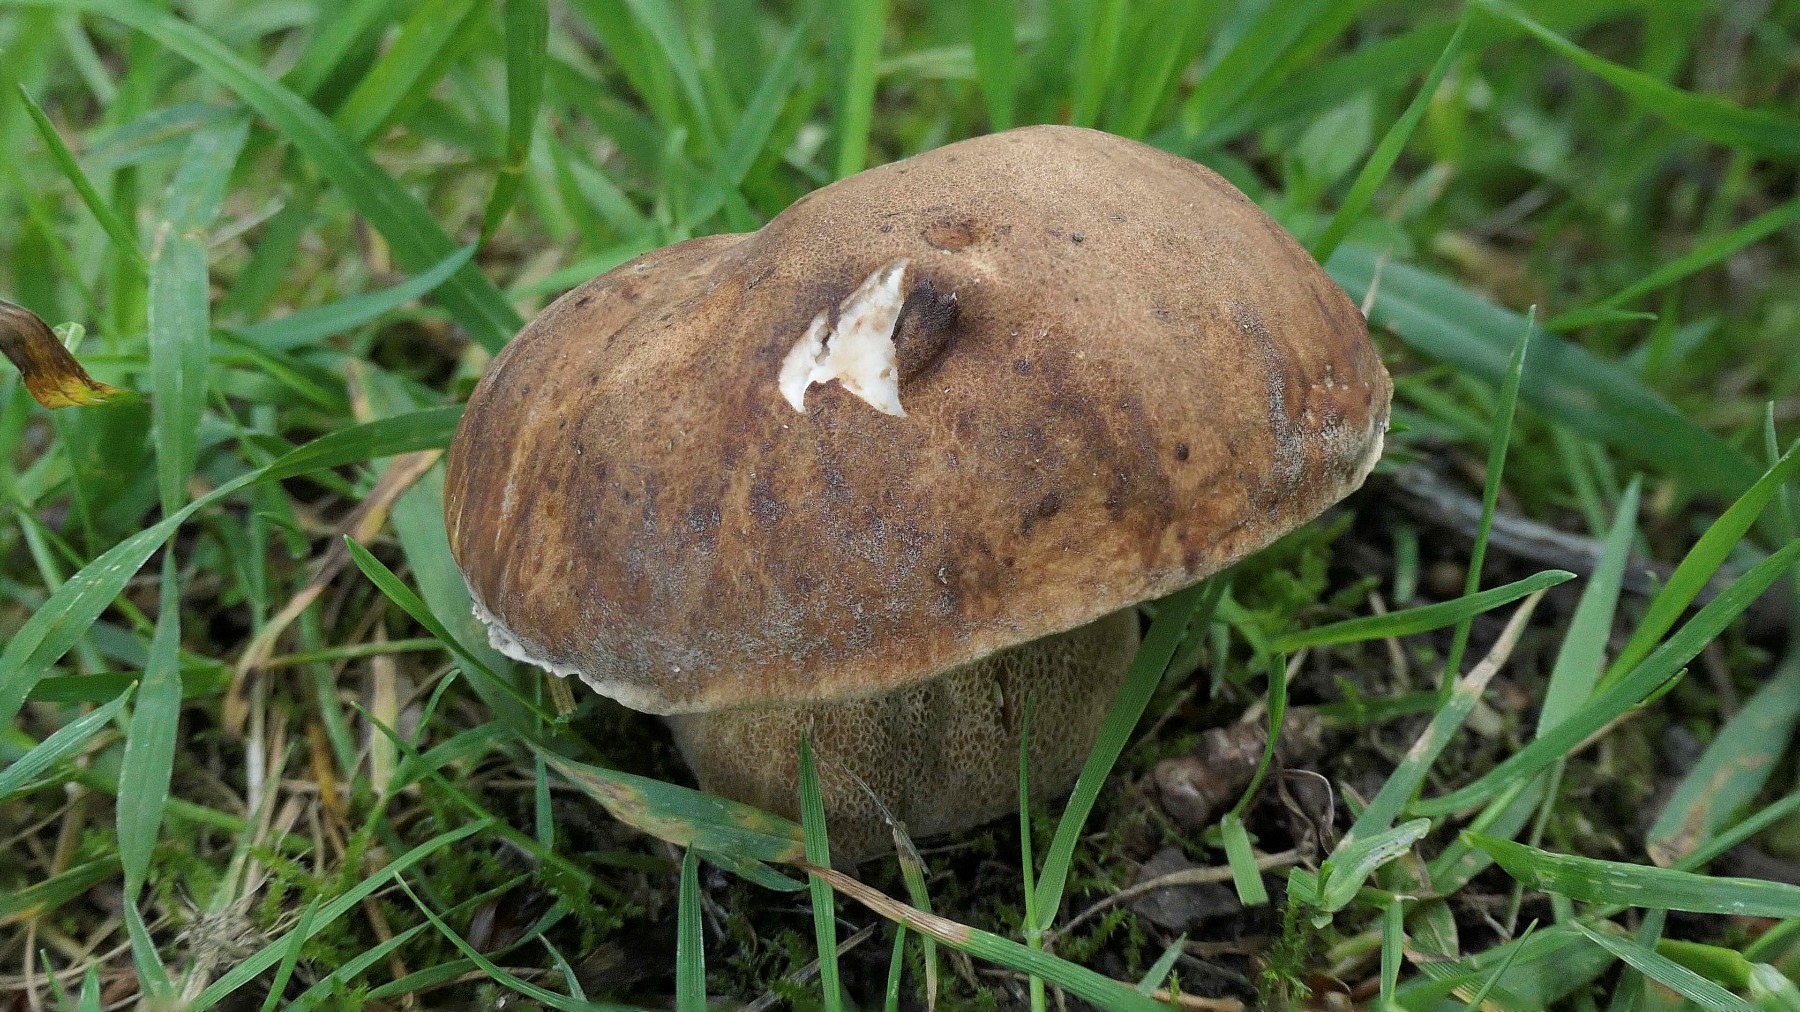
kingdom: Fungi
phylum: Basidiomycota
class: Agaricomycetes
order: Boletales
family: Boletaceae
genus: Boletus
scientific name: Boletus reticulatus
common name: sommer-rørhat
